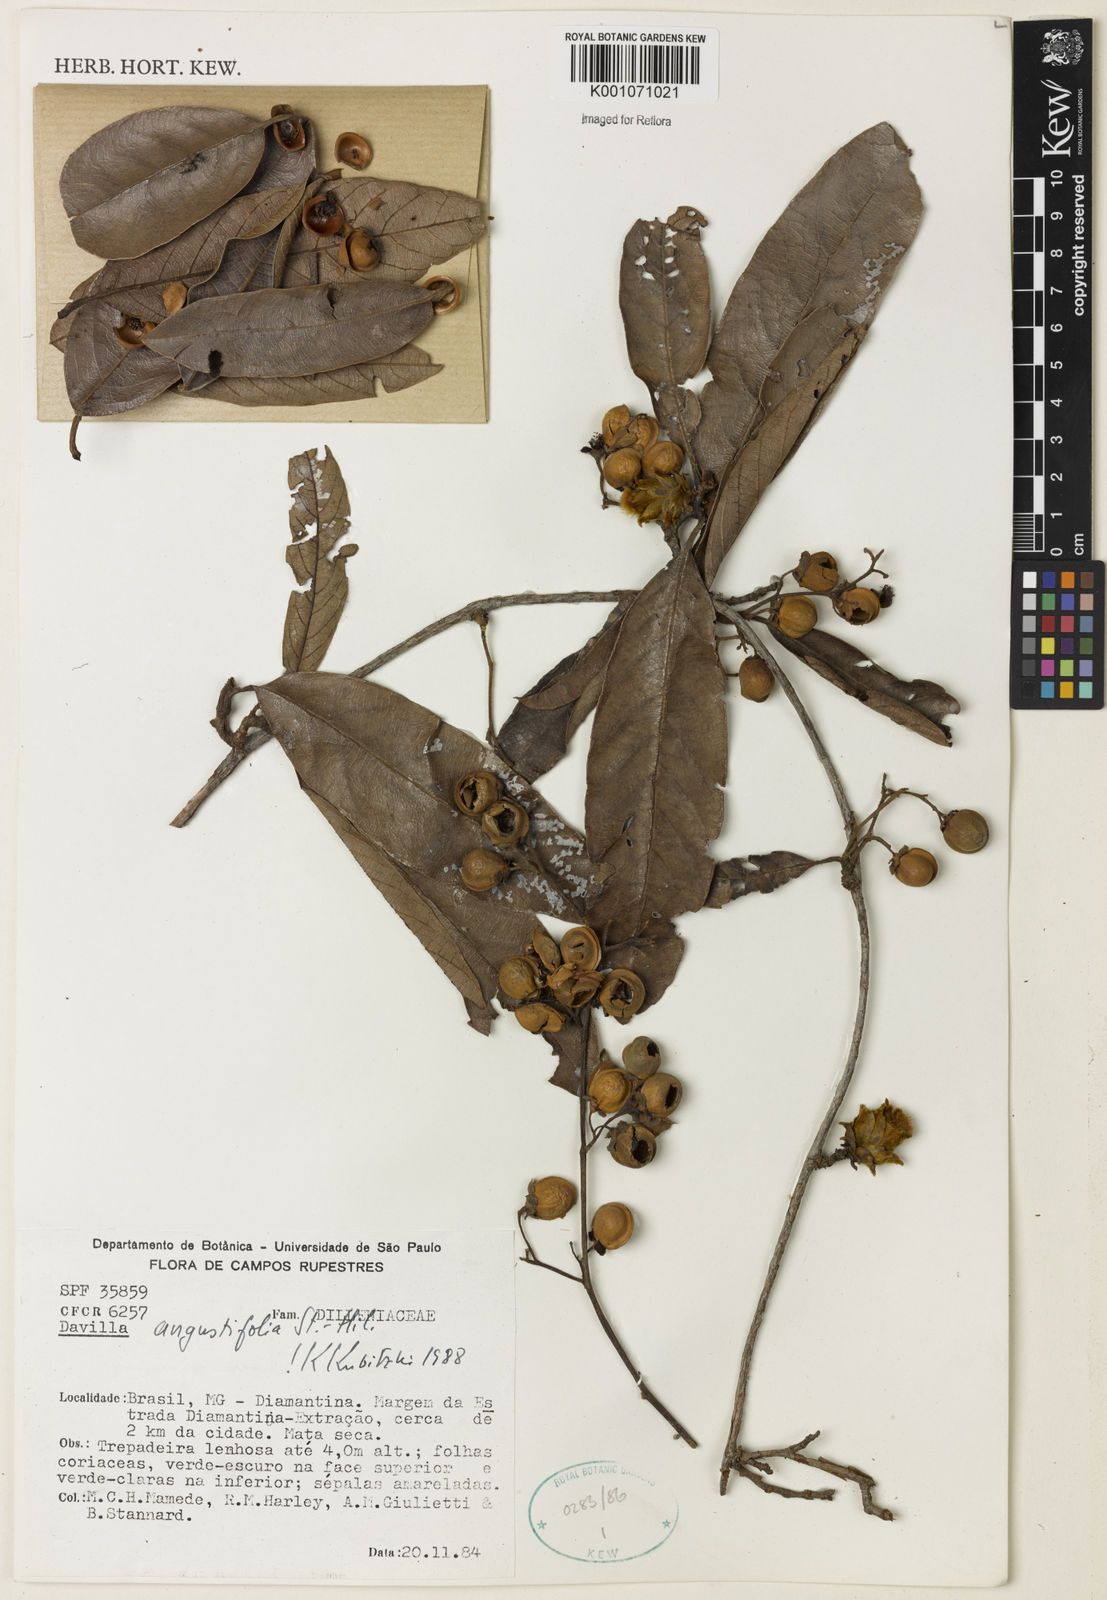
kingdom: Plantae
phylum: Tracheophyta
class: Magnoliopsida
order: Dilleniales
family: Dilleniaceae
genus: Davilla
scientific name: Davilla angustifolia
